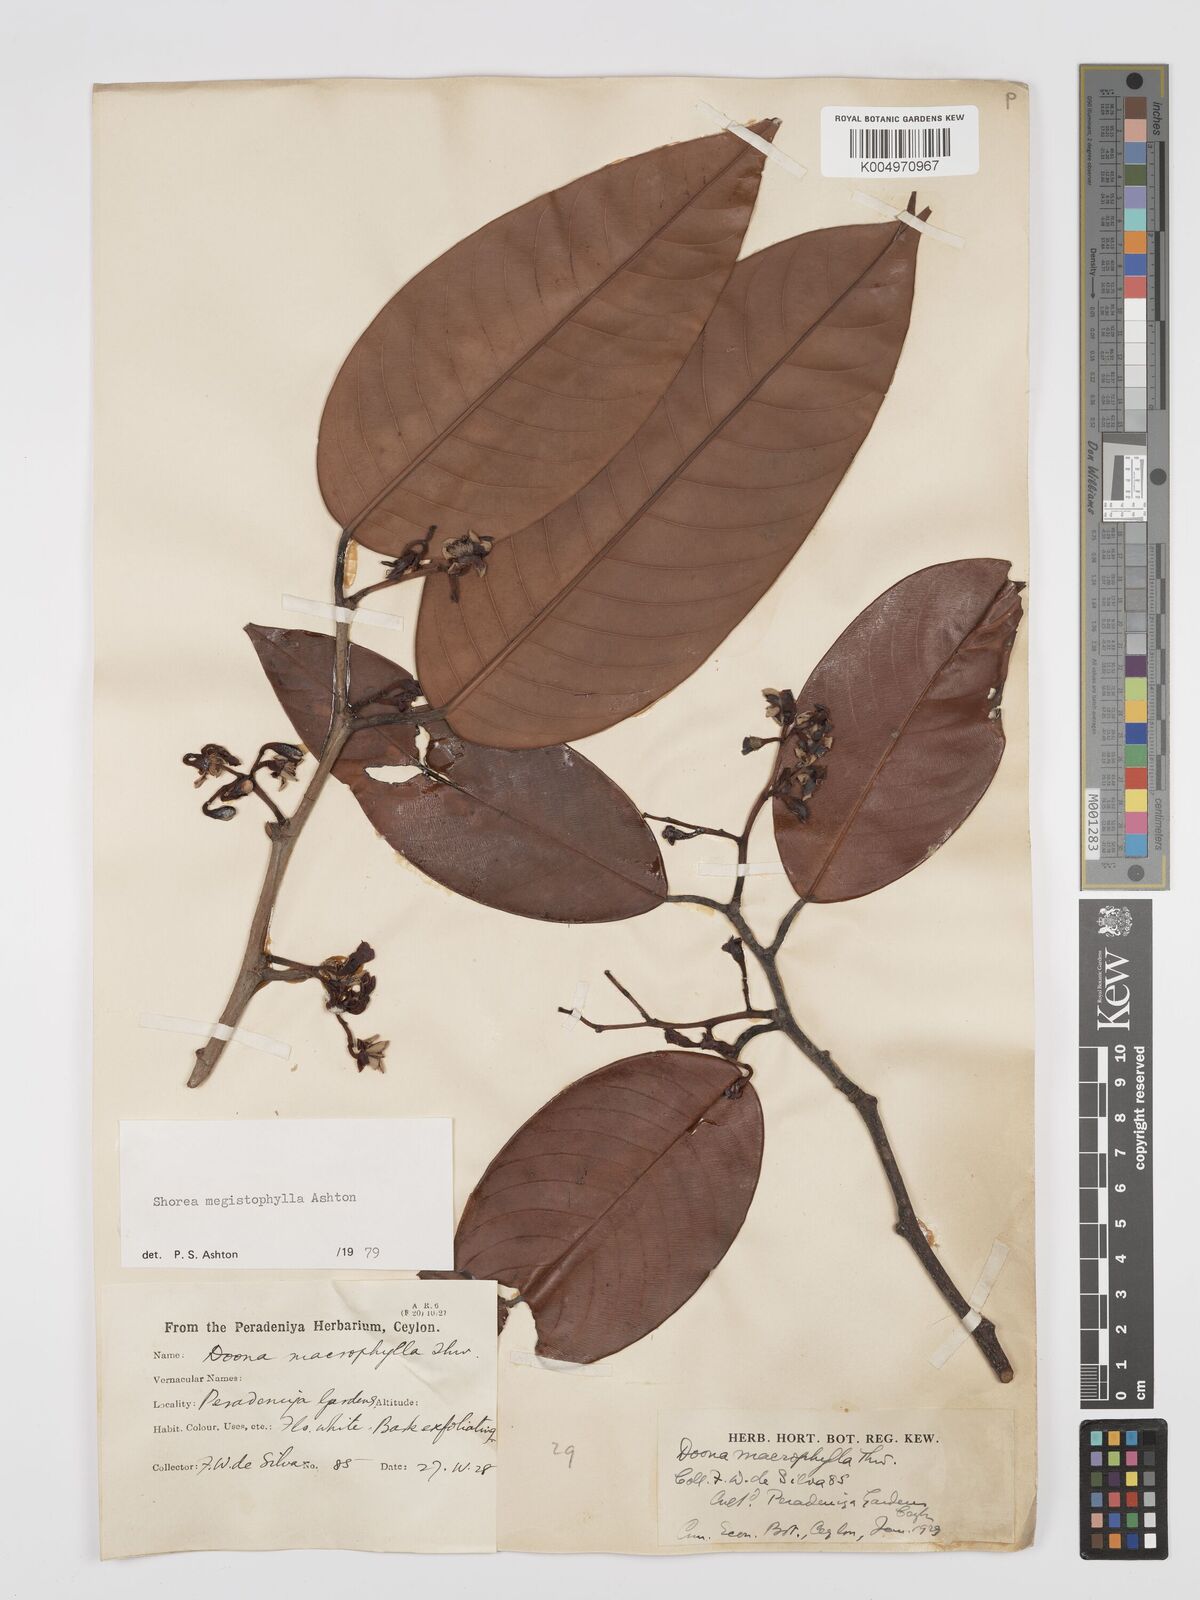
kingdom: Plantae
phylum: Tracheophyta
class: Magnoliopsida
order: Malvales
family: Dipterocarpaceae
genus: Doona
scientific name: Doona macrophylla
